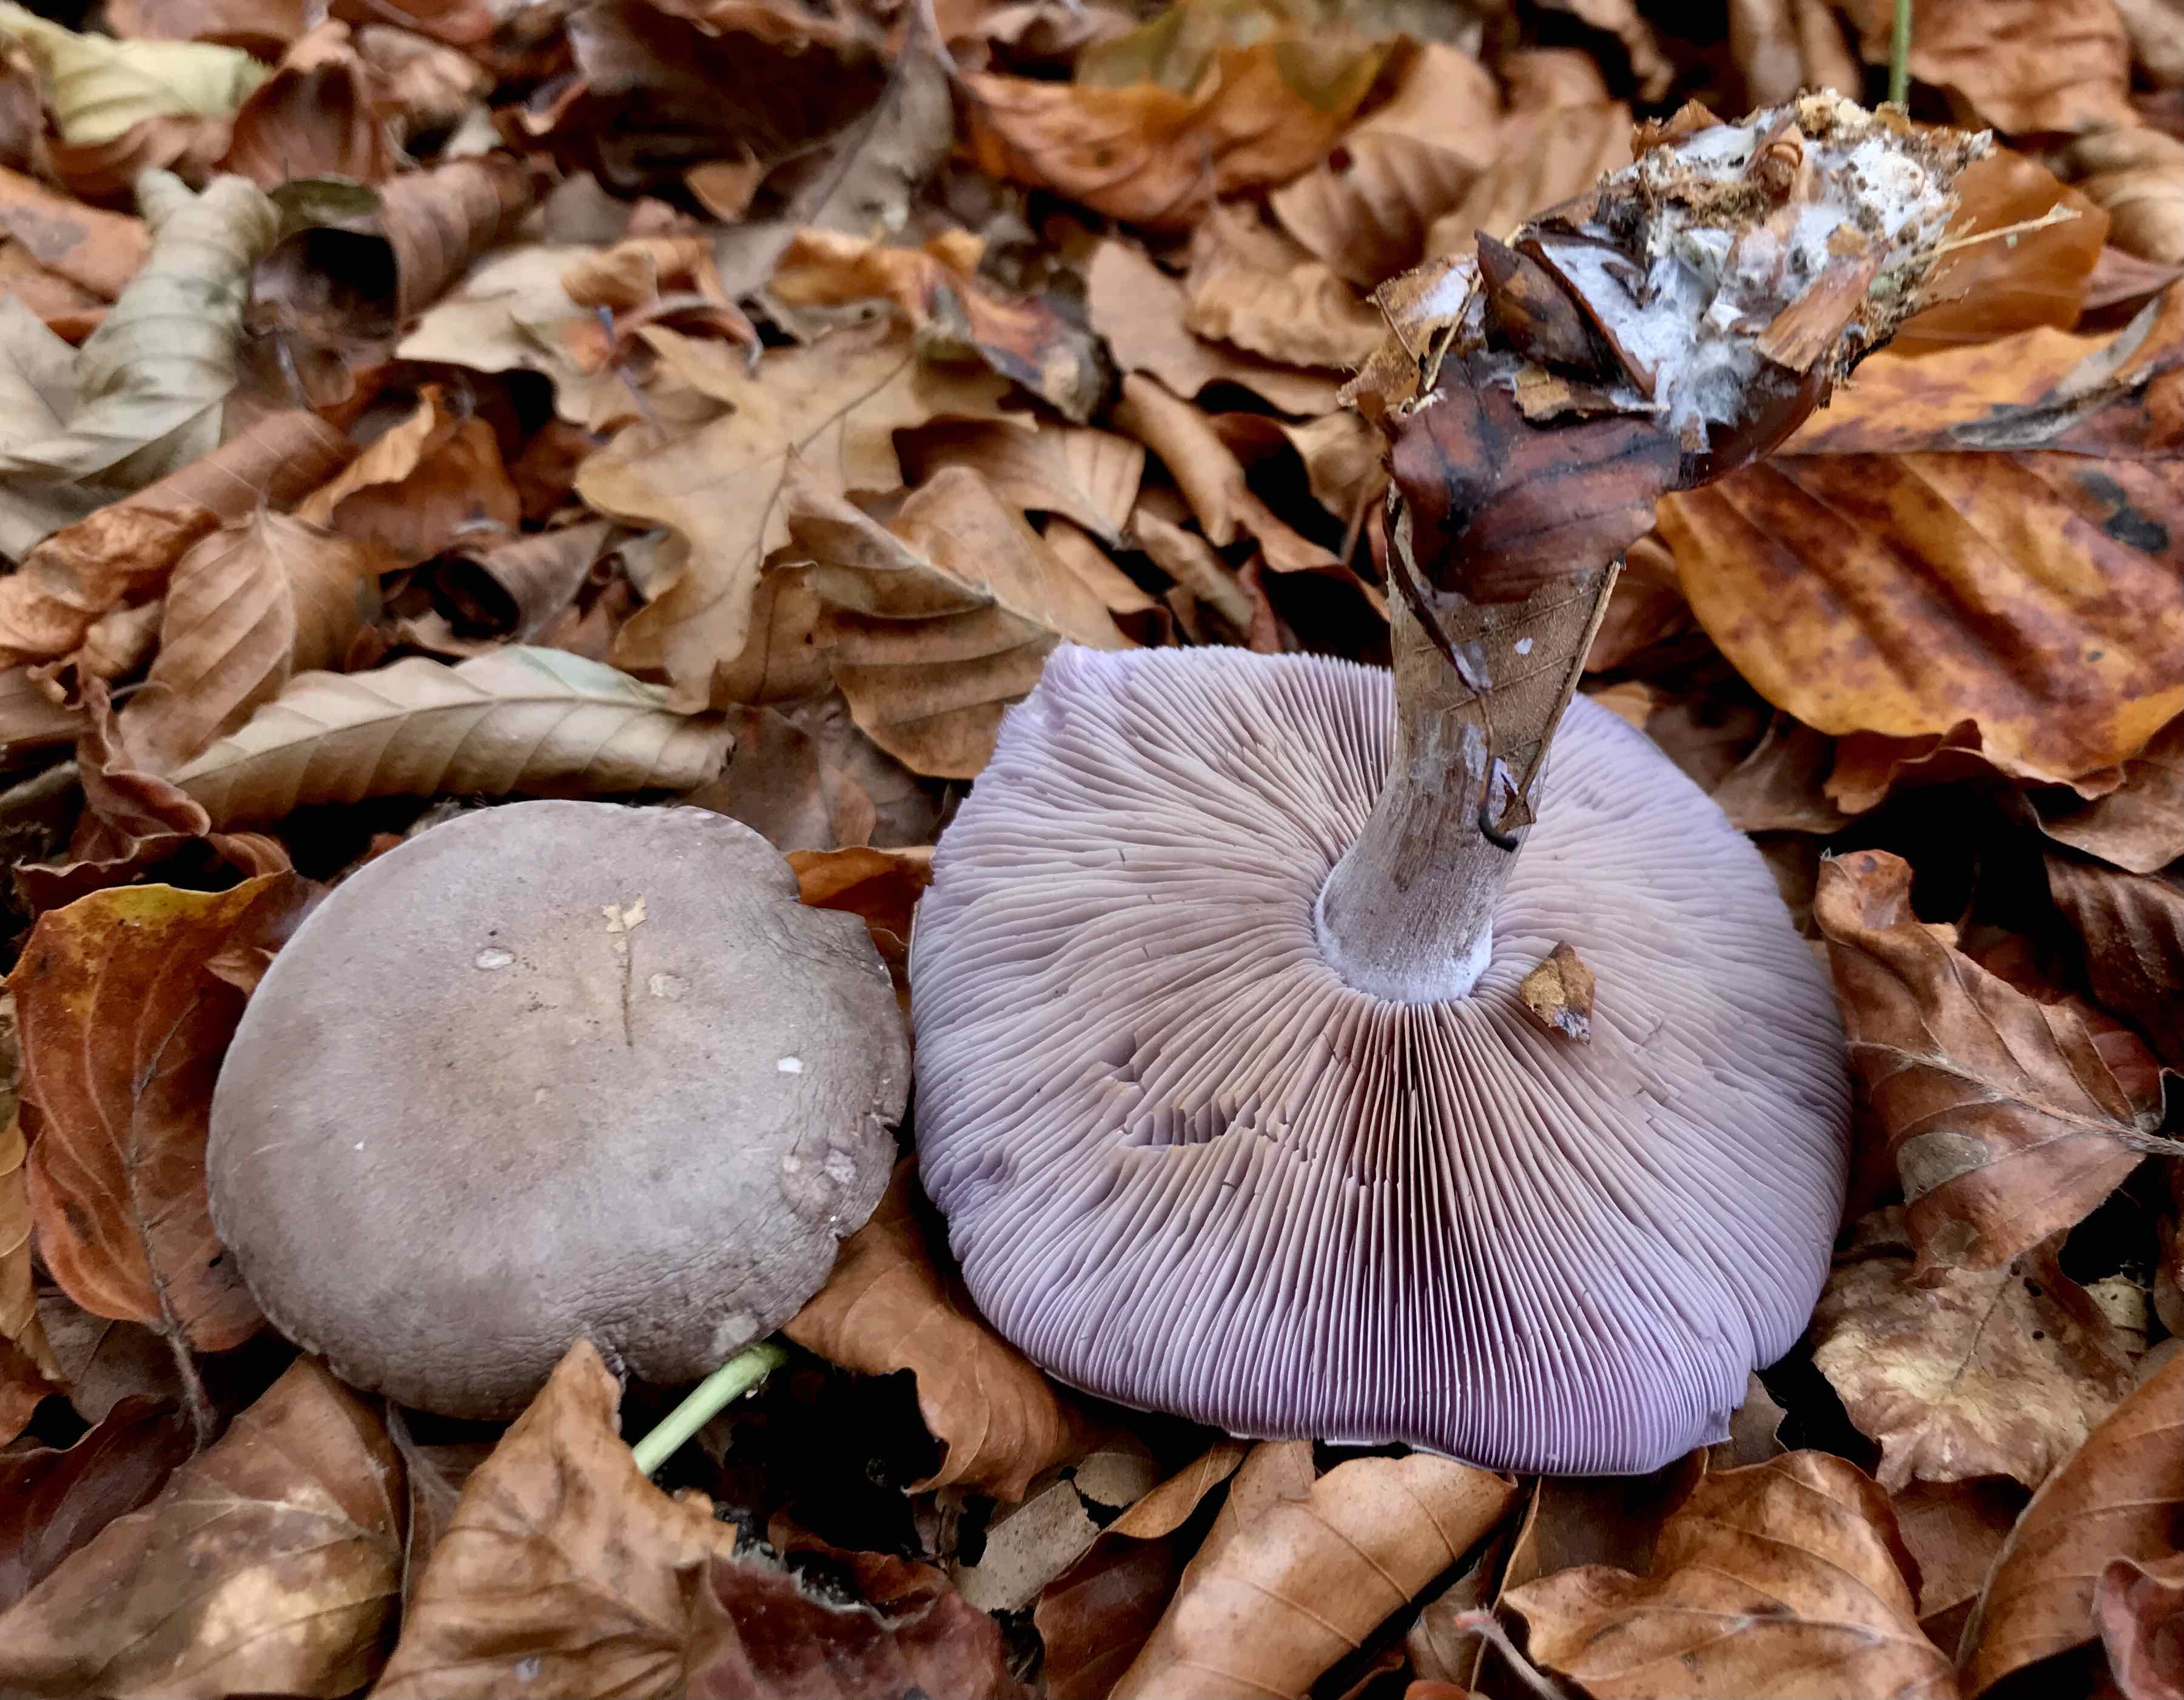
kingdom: Fungi
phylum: Basidiomycota
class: Agaricomycetes
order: Agaricales
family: Tricholomataceae
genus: Lepista
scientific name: Lepista nuda
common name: violet hekseringshat
